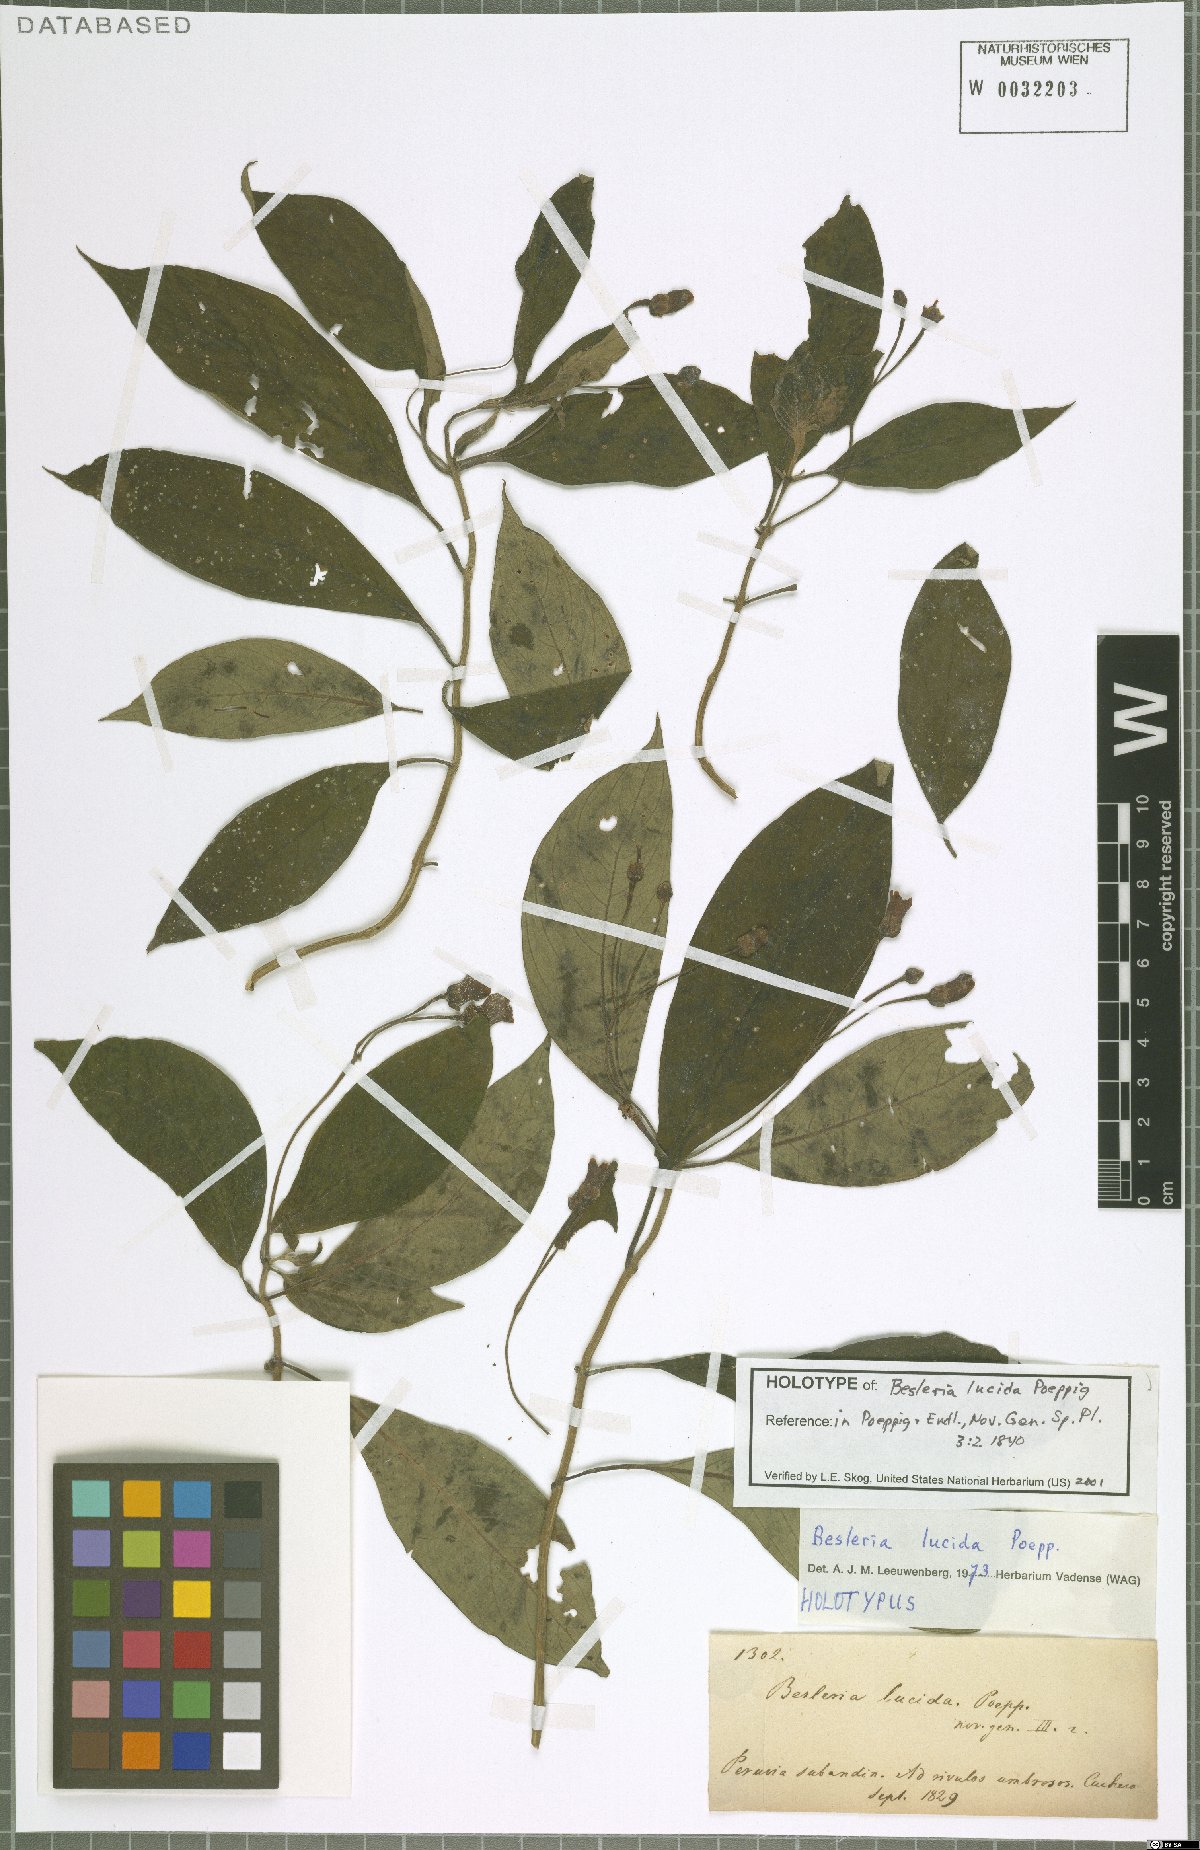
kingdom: Plantae
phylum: Tracheophyta
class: Magnoliopsida
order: Lamiales
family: Gesneriaceae
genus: Besleria
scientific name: Besleria lucida
